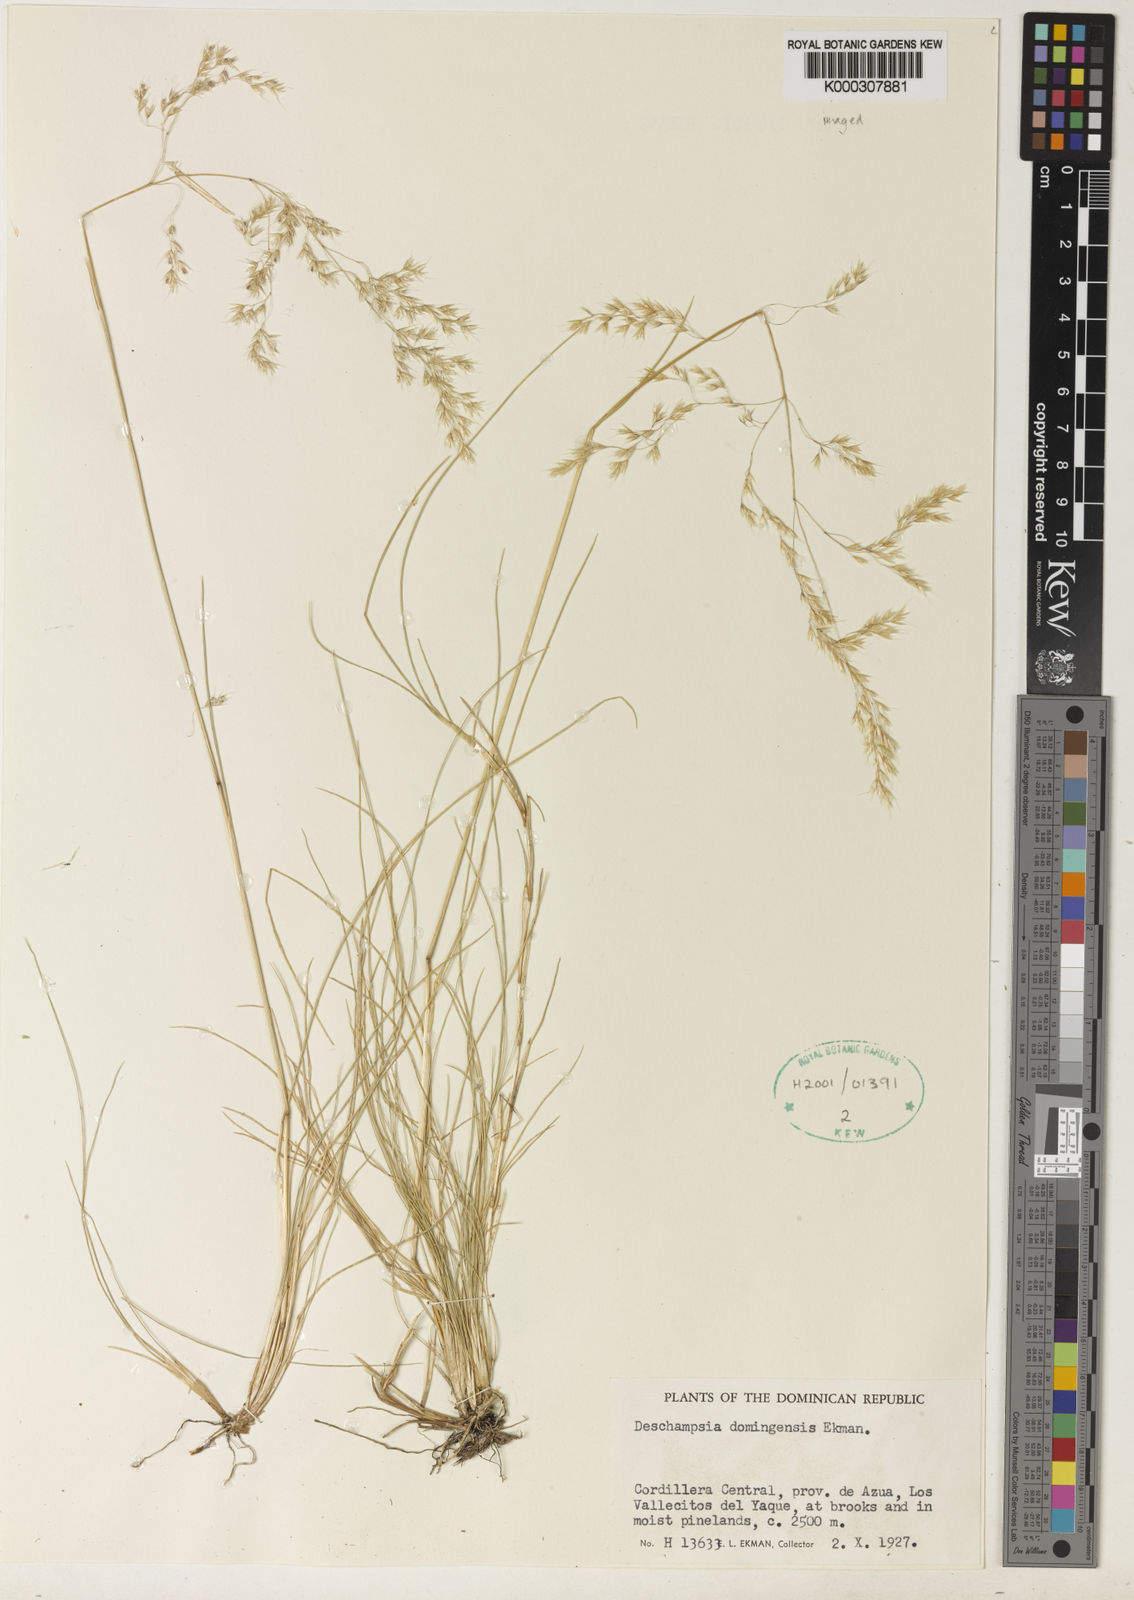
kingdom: Plantae
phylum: Tracheophyta
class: Liliopsida
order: Poales
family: Poaceae
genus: Deschampsia
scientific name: Deschampsia domingensis
